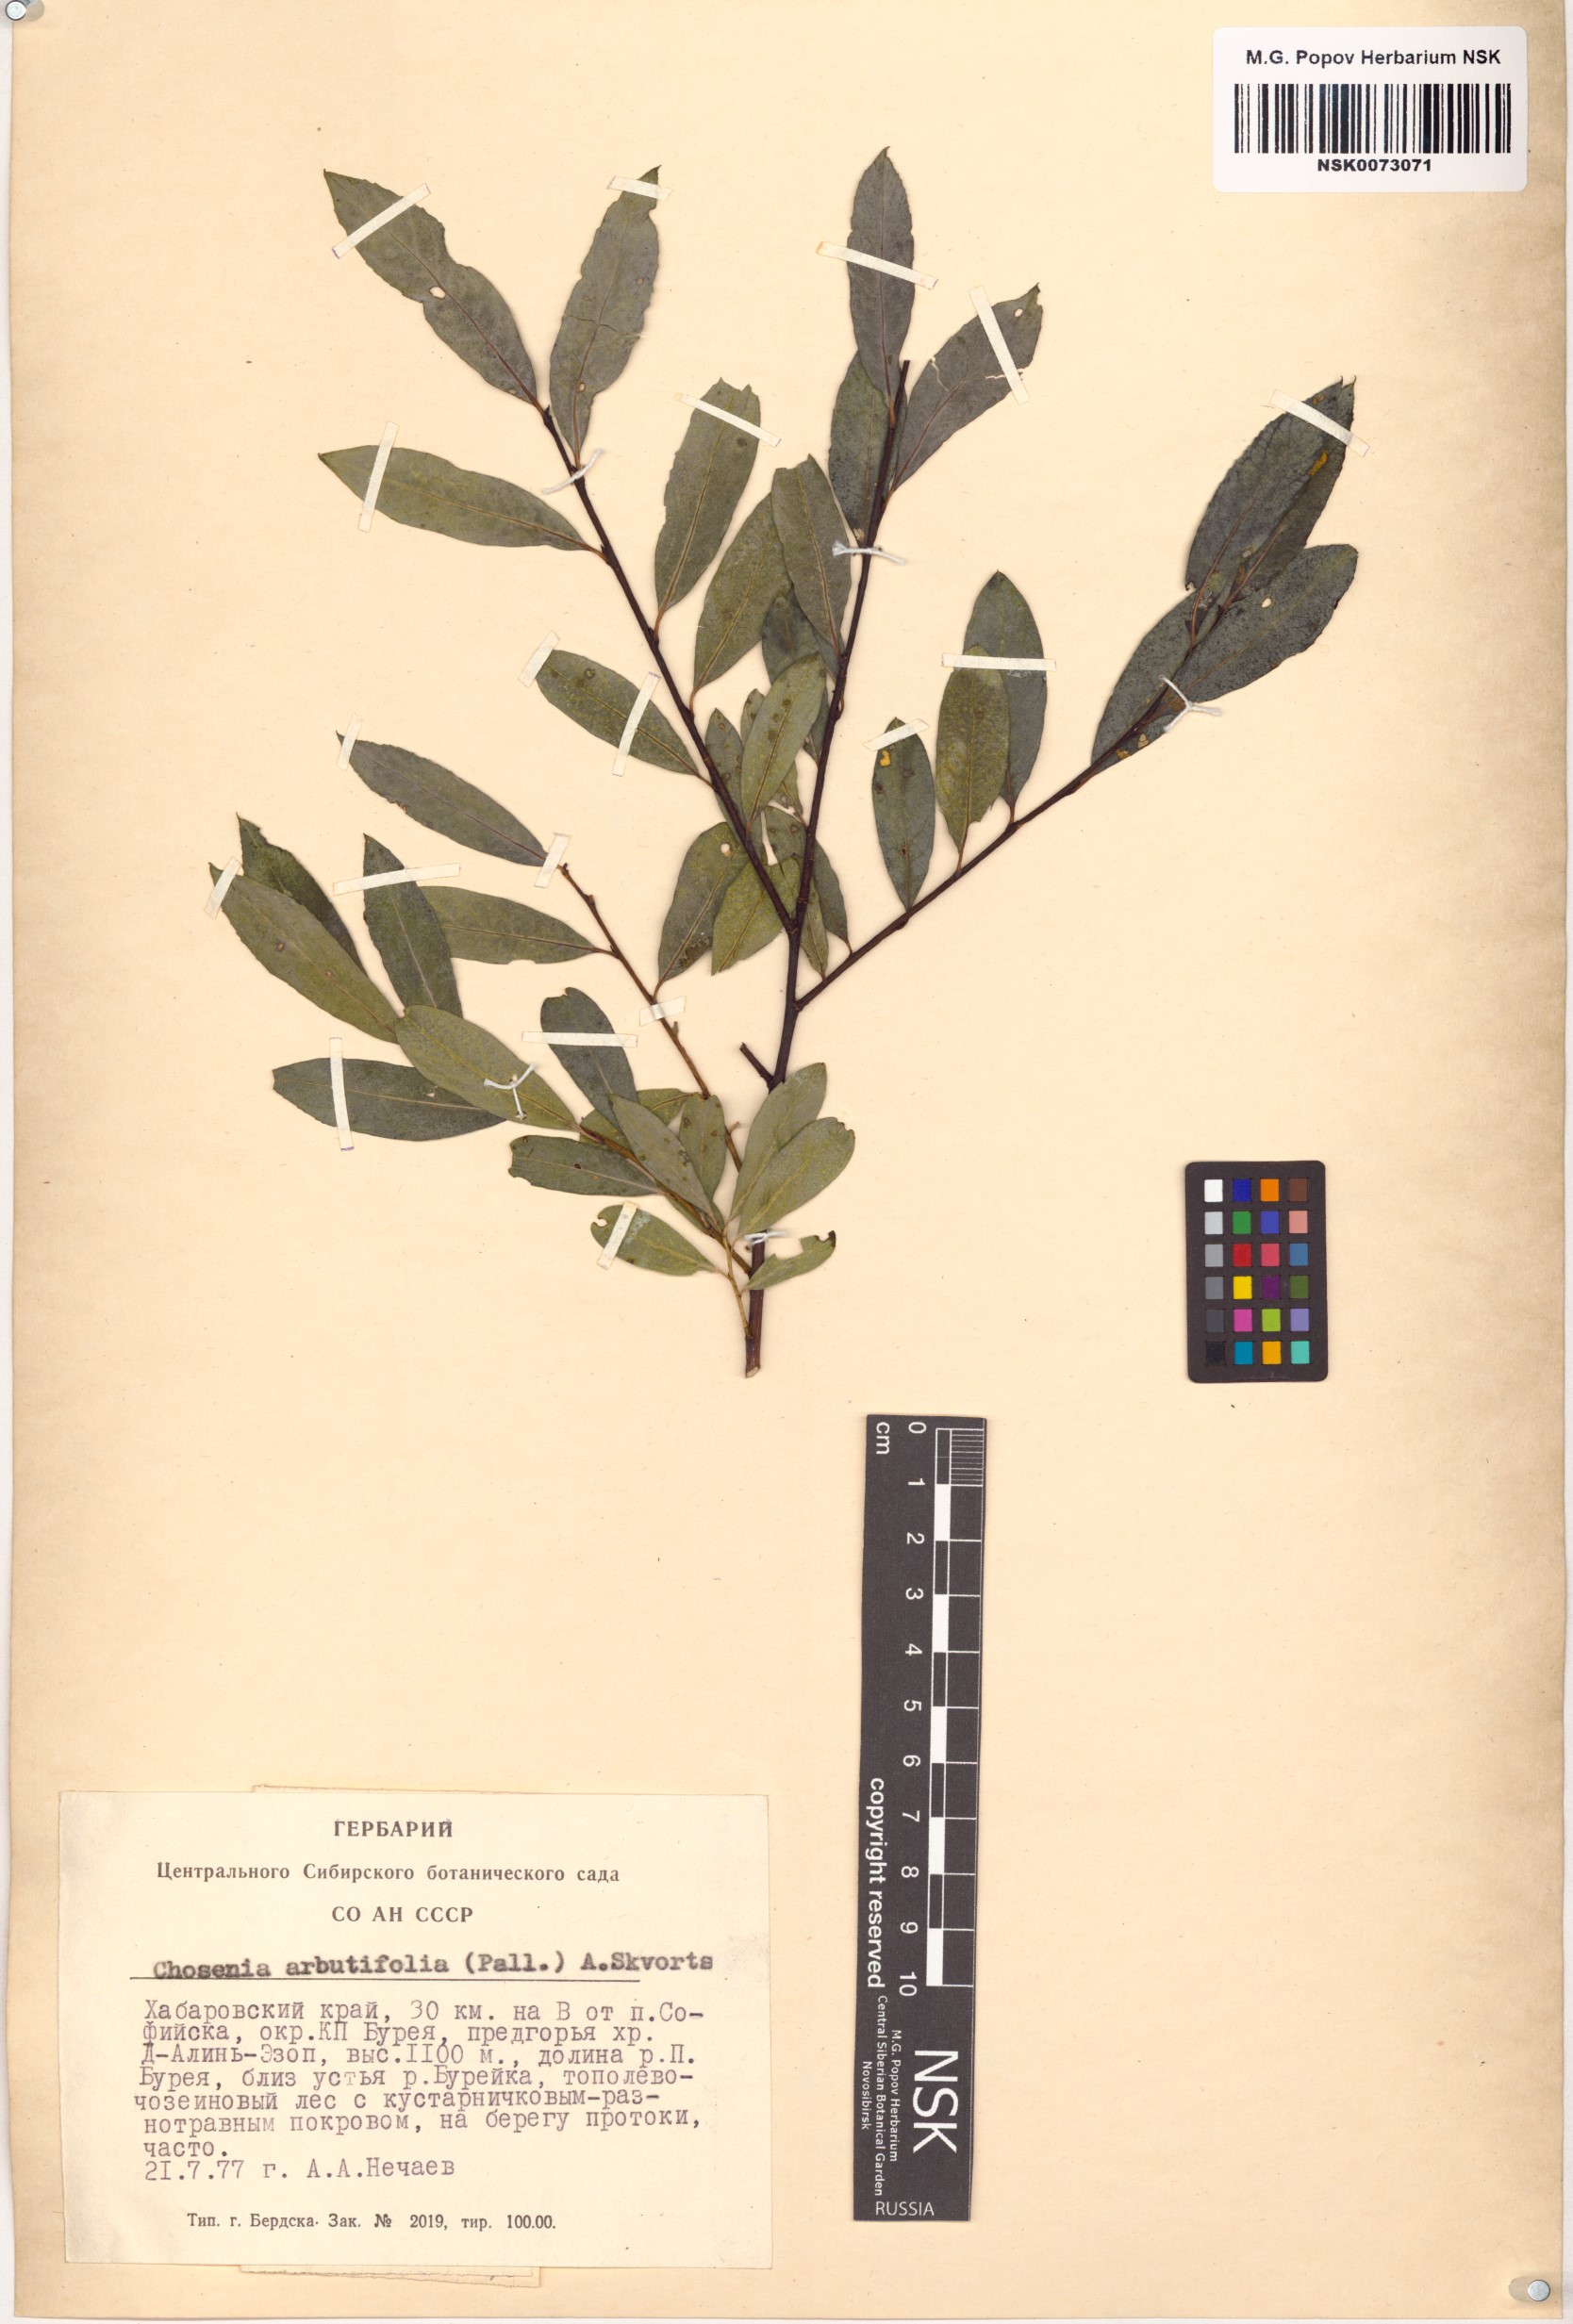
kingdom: Plantae
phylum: Tracheophyta
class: Magnoliopsida
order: Malpighiales
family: Salicaceae
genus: Chosenia
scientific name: Chosenia arbutifolia
